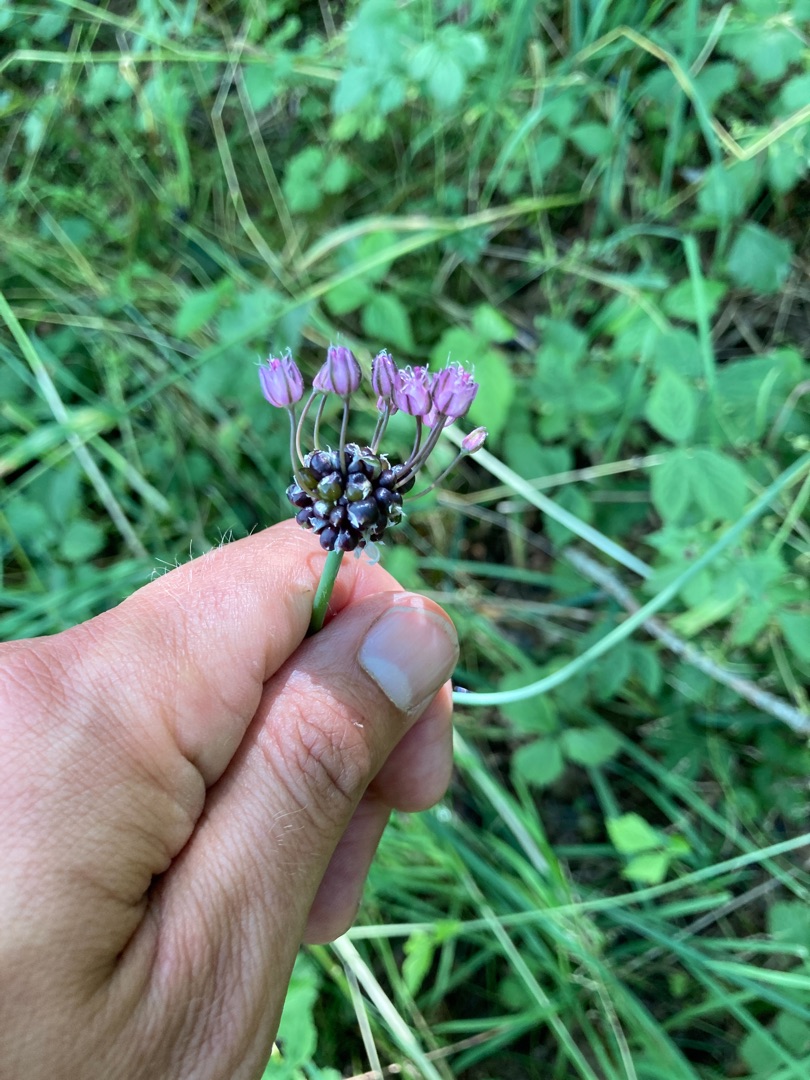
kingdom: Plantae
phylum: Tracheophyta
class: Liliopsida
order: Asparagales
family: Amaryllidaceae
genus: Allium
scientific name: Allium scorodoprasum
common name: Skov-løg
